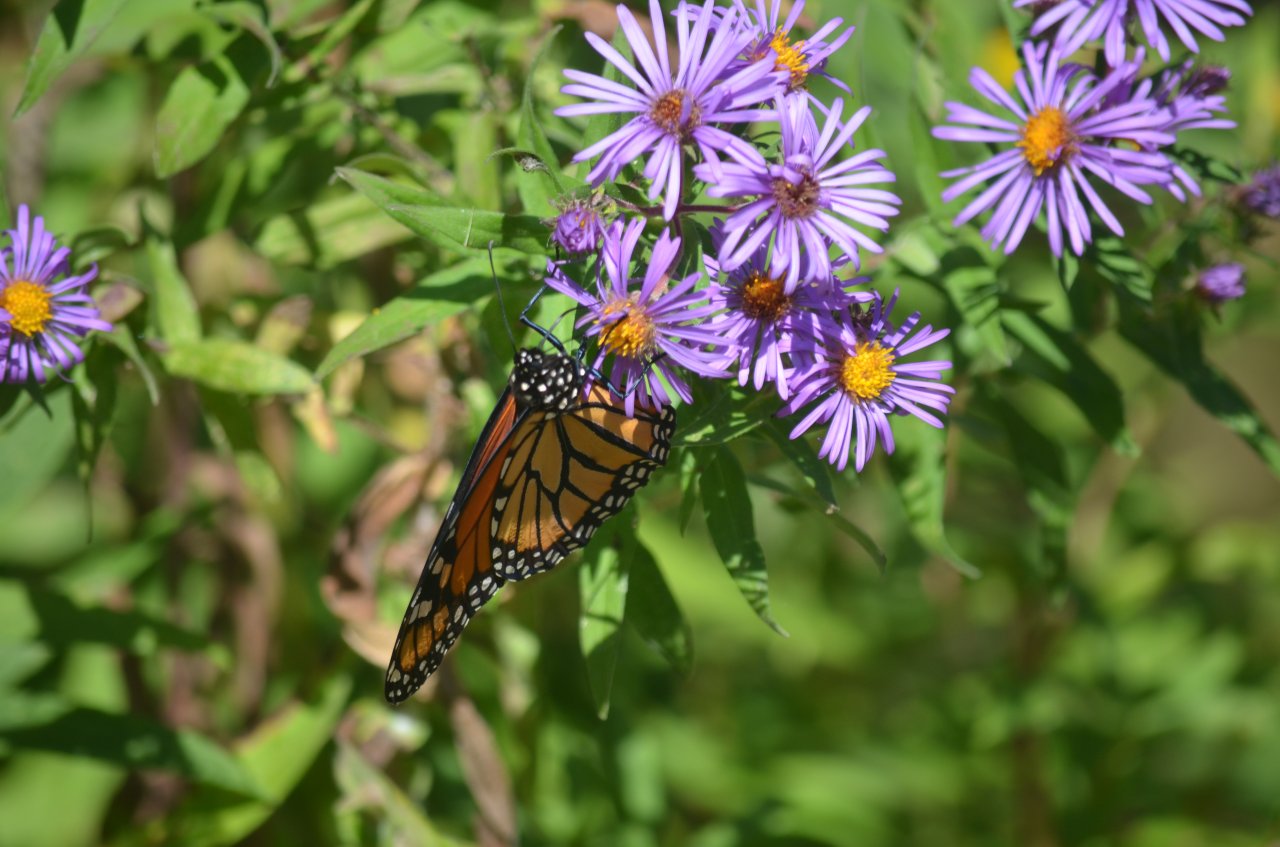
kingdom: Animalia
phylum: Arthropoda
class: Insecta
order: Lepidoptera
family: Nymphalidae
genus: Danaus
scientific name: Danaus plexippus
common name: Monarch
